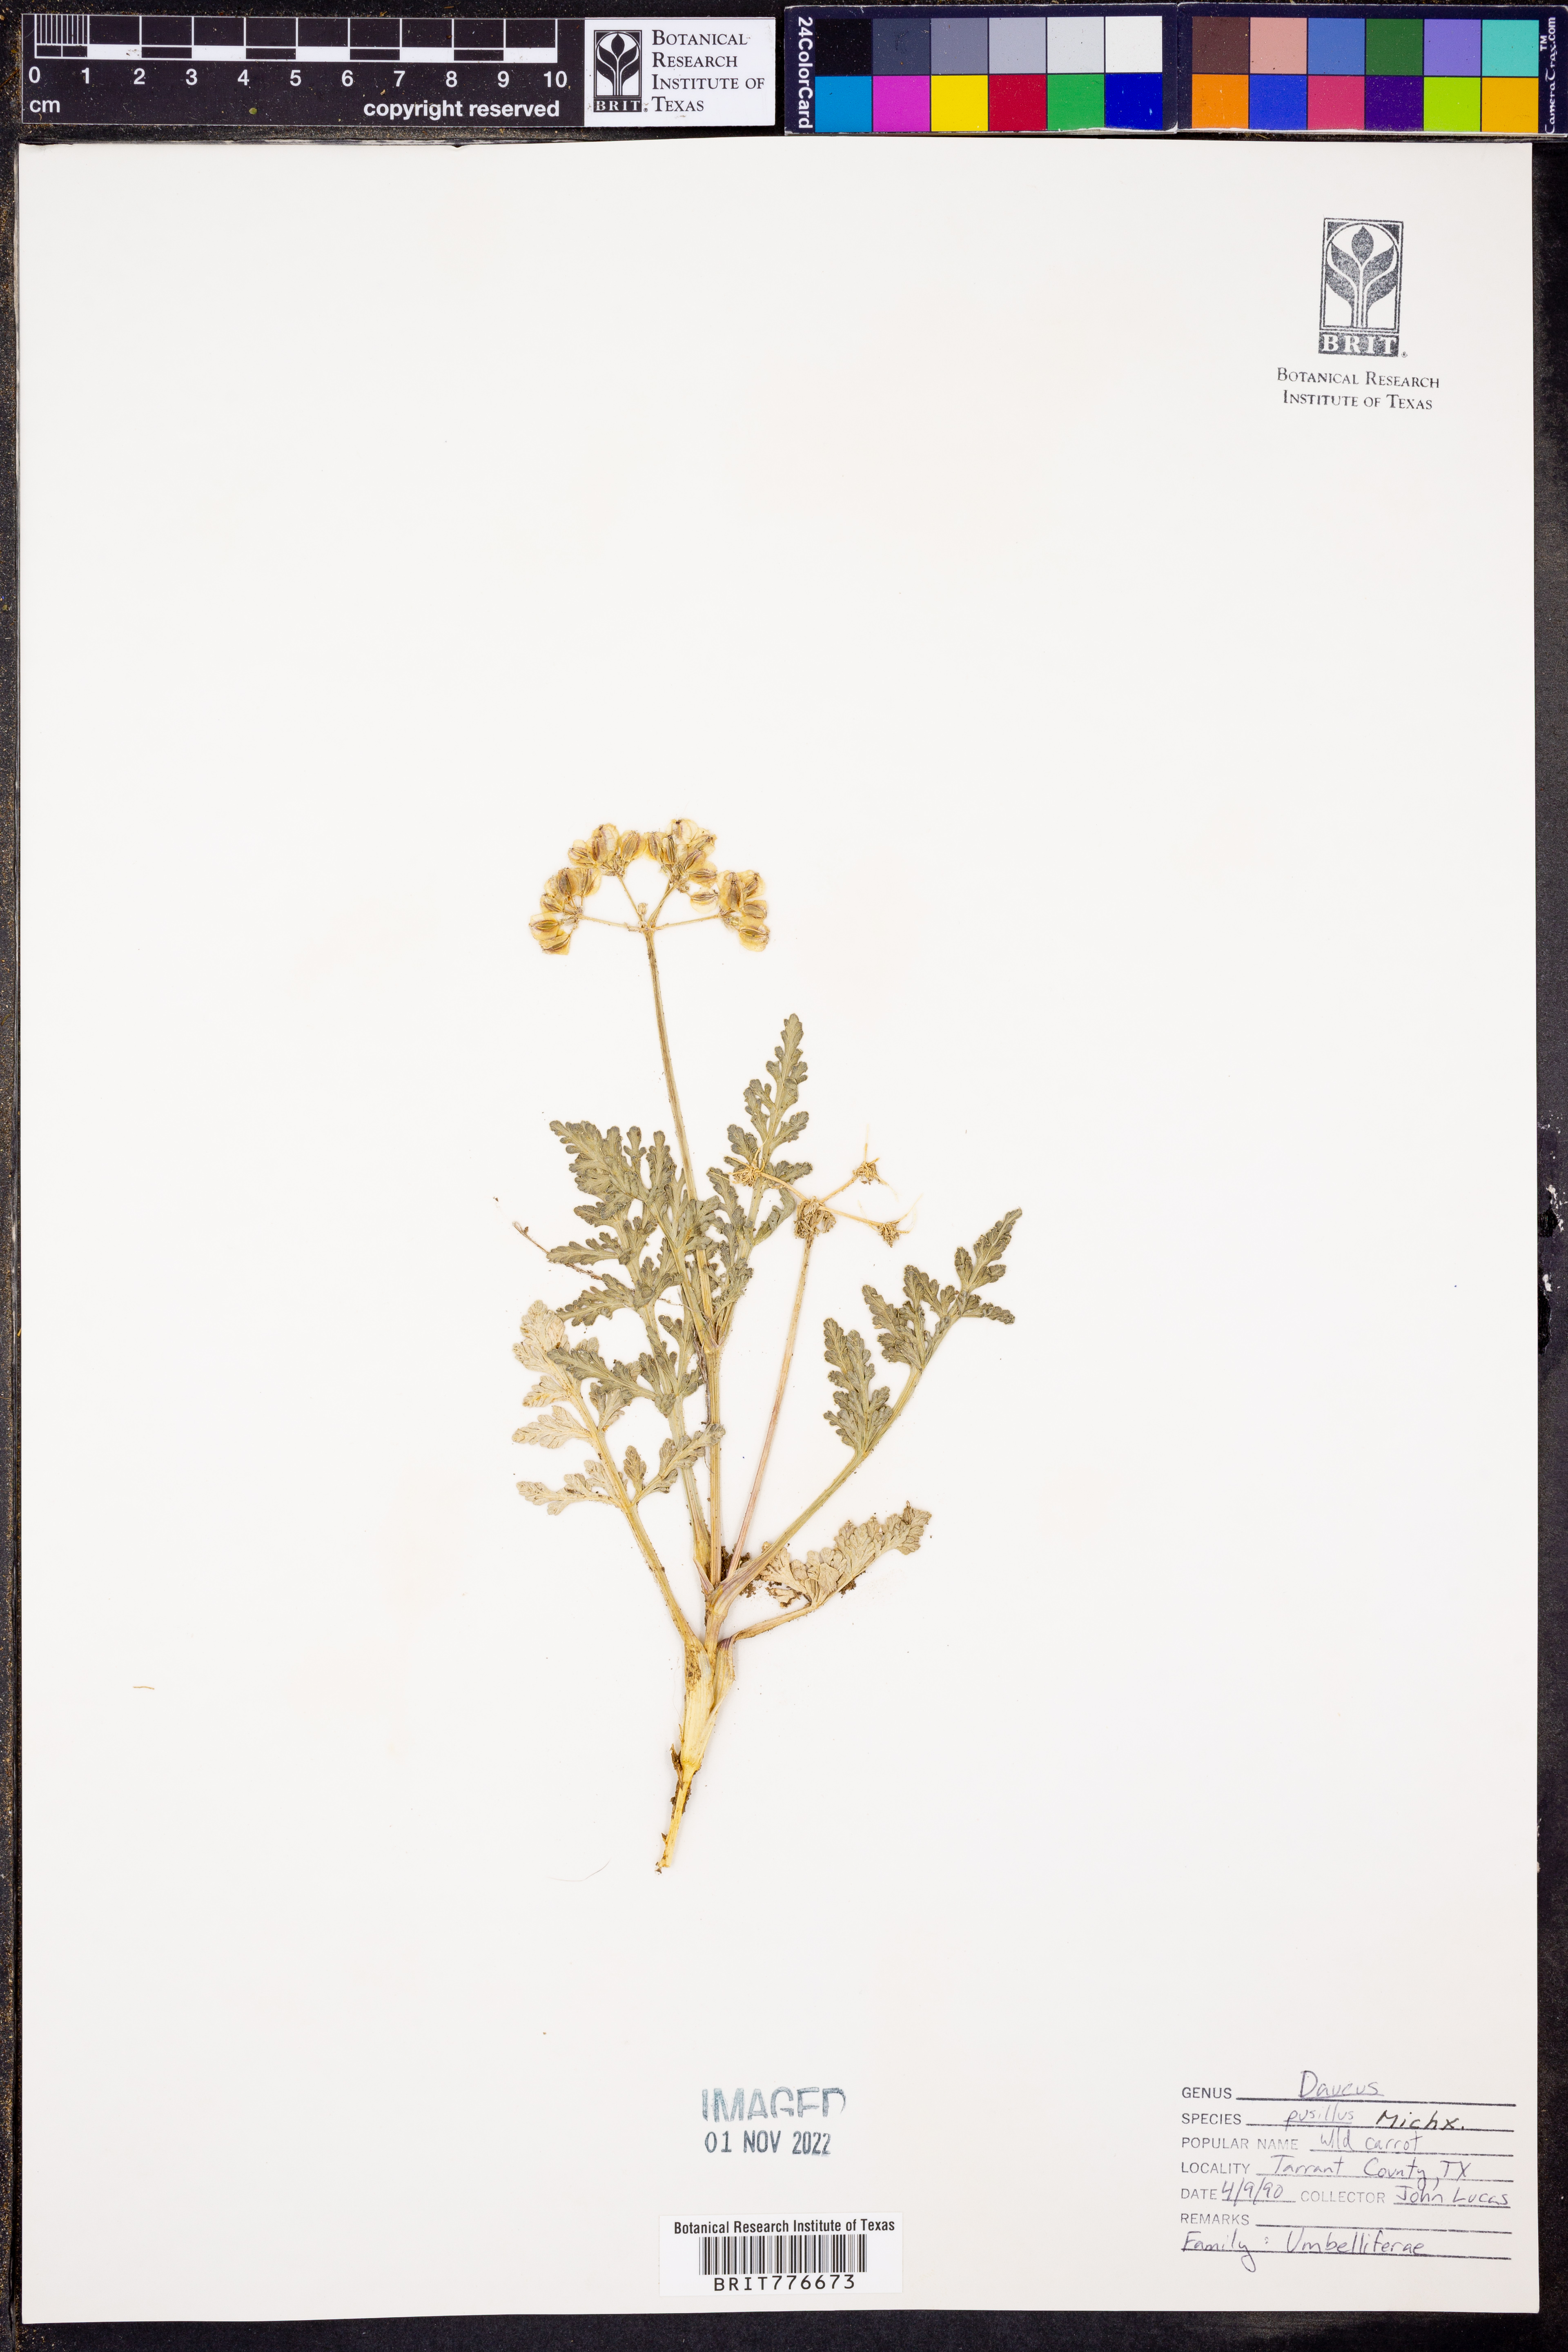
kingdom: Plantae
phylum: Tracheophyta
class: Magnoliopsida
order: Apiales
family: Apiaceae
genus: Daucus
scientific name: Daucus pusillus
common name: Southwest wild carrot
